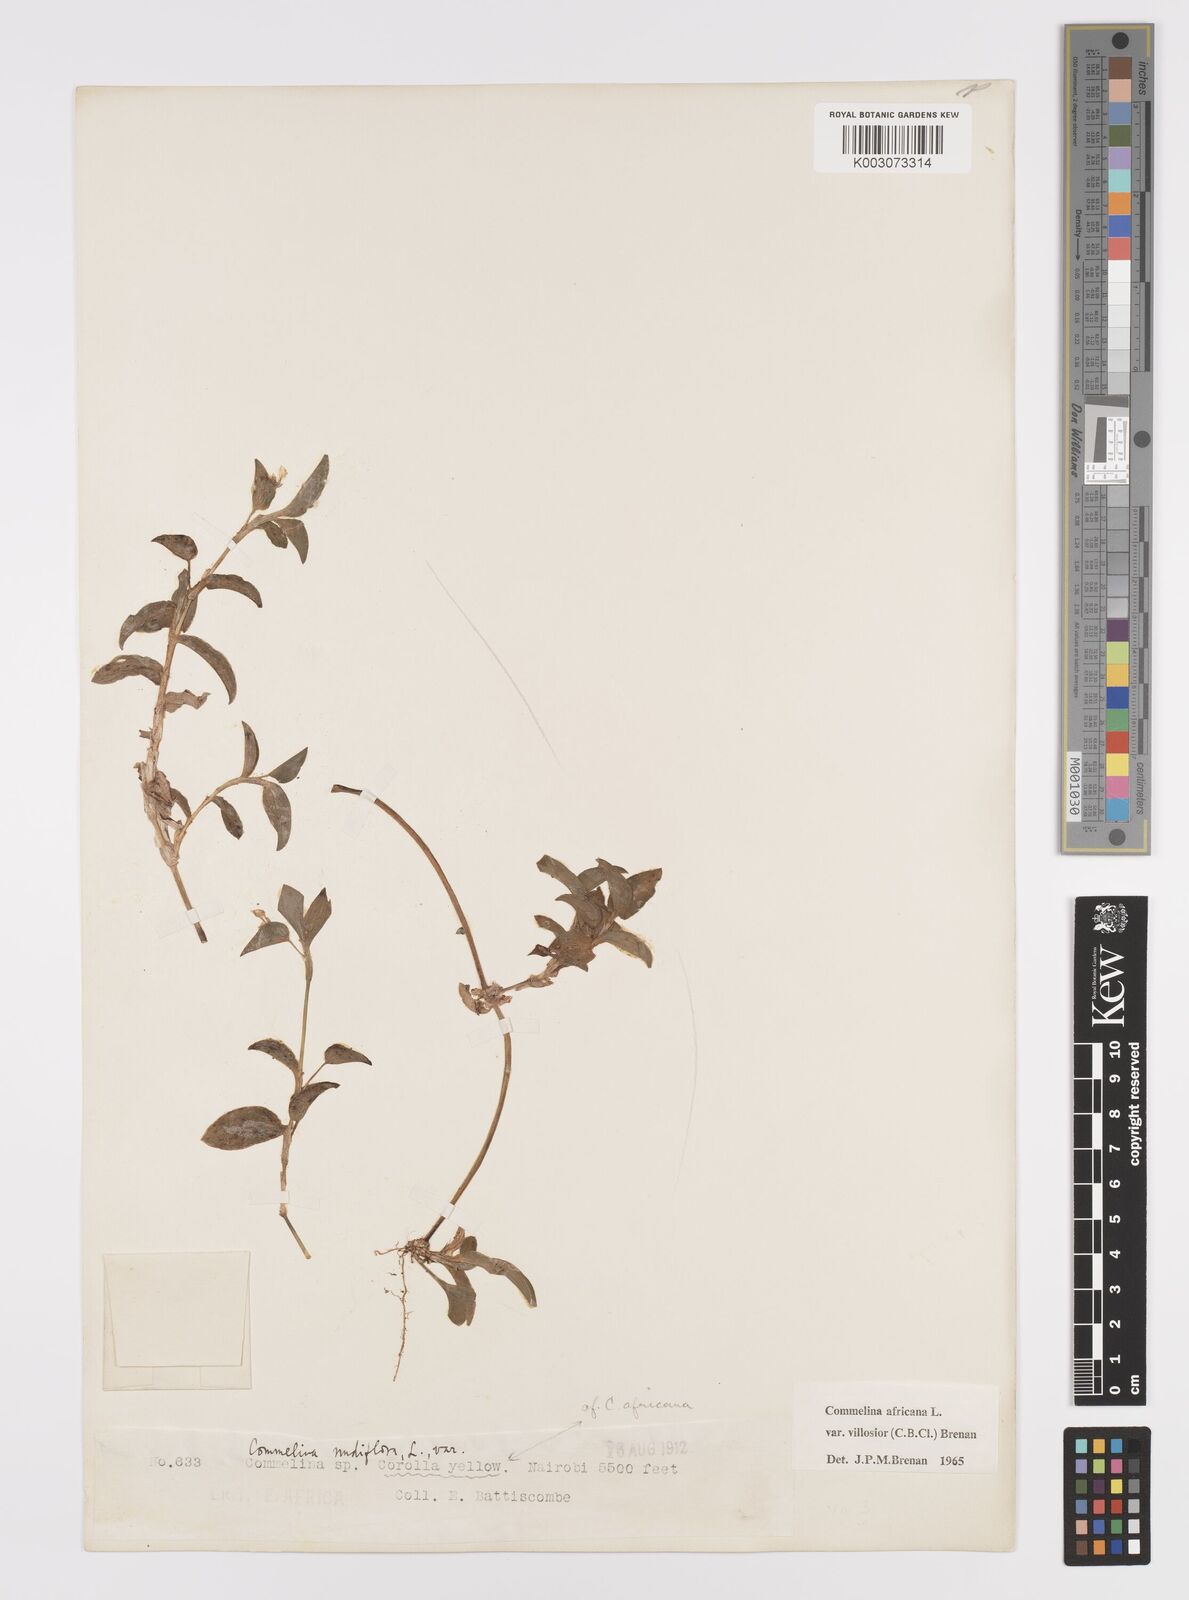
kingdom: Plantae
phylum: Tracheophyta
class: Liliopsida
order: Commelinales
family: Commelinaceae
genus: Commelina
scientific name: Commelina africana
